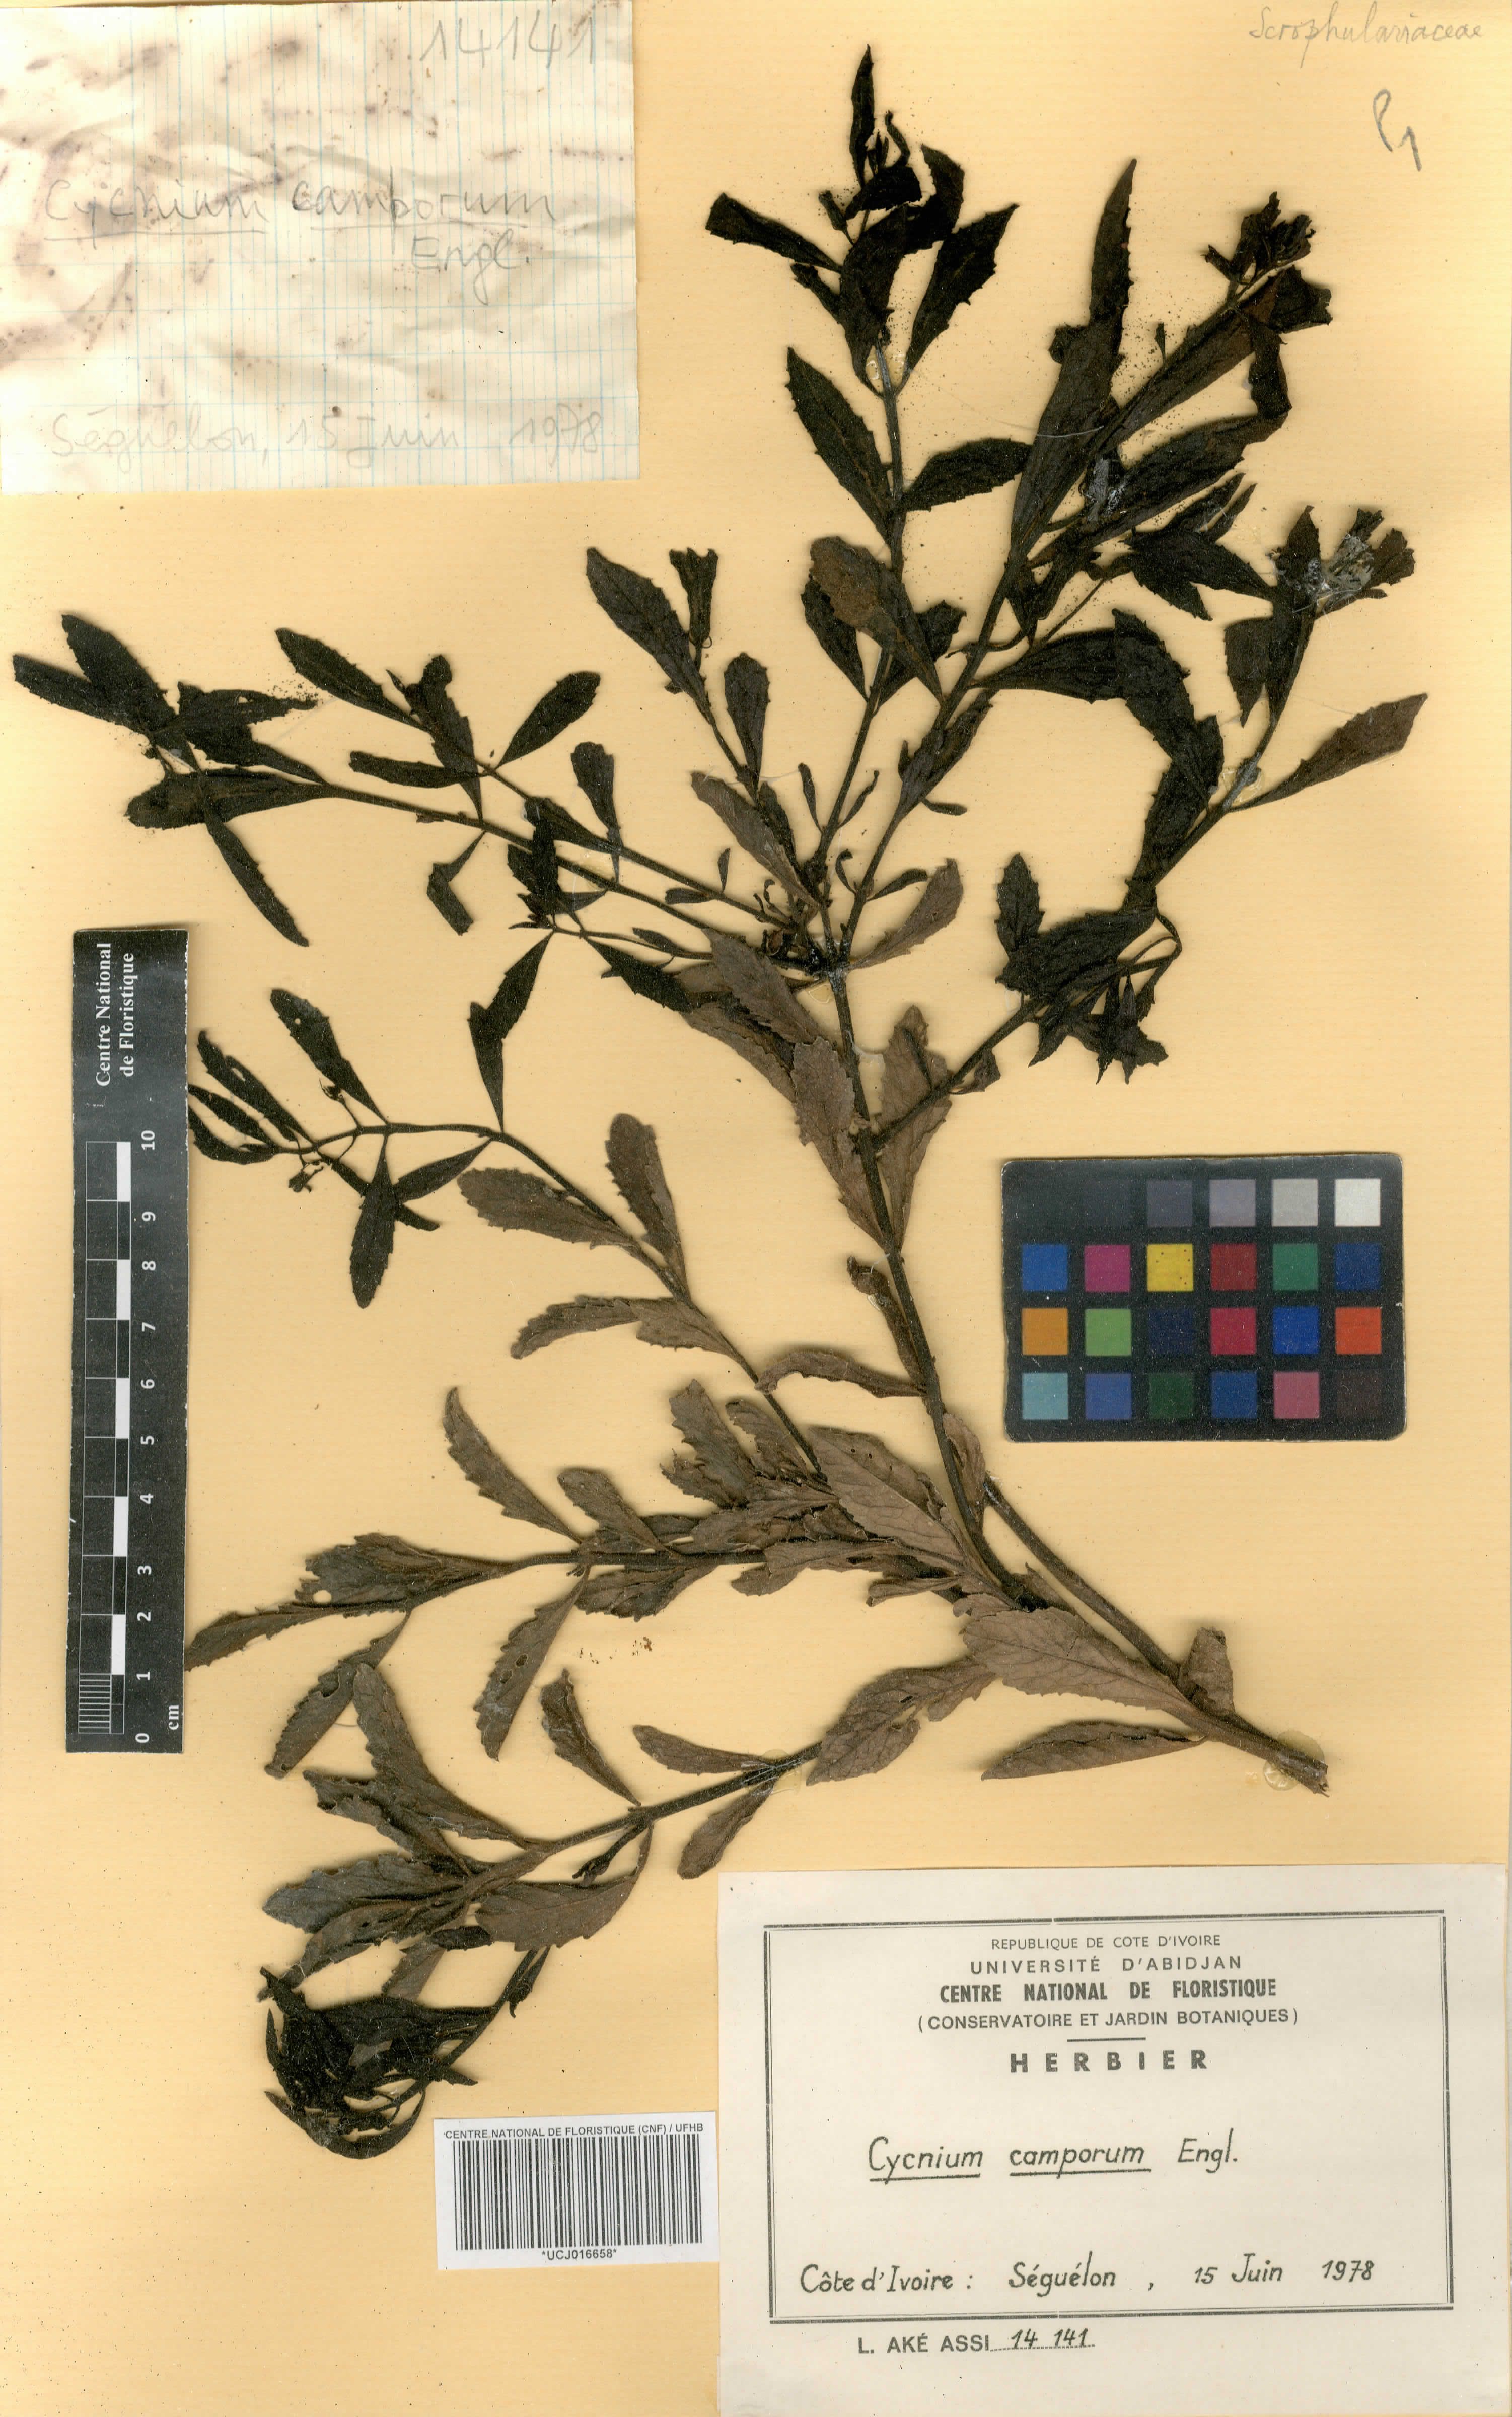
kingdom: Plantae
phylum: Tracheophyta
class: Magnoliopsida
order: Lamiales
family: Orobanchaceae
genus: Cycnium
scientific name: Cycnium adoense
